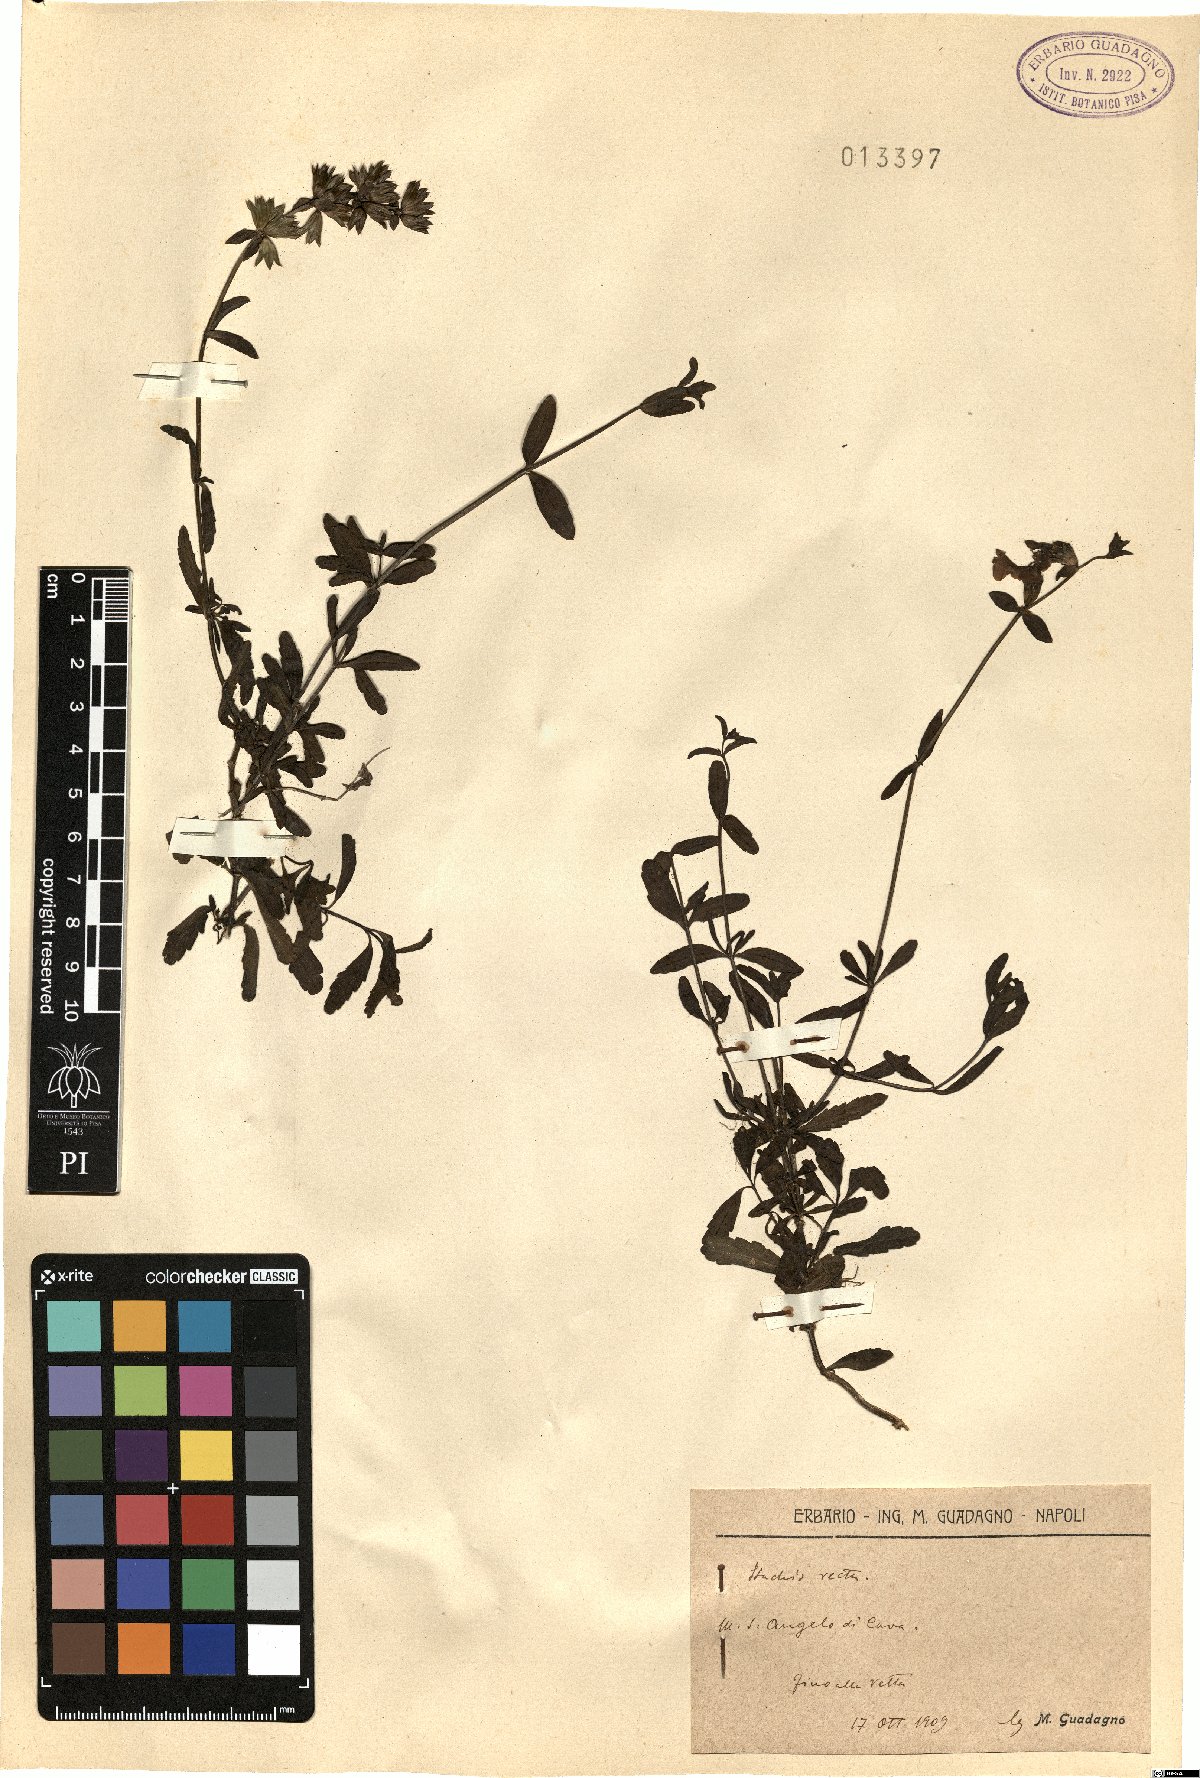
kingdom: Plantae
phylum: Tracheophyta
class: Magnoliopsida
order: Lamiales
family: Lamiaceae
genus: Stachys
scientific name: Stachys recta
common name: Perennial yellow-woundwort
